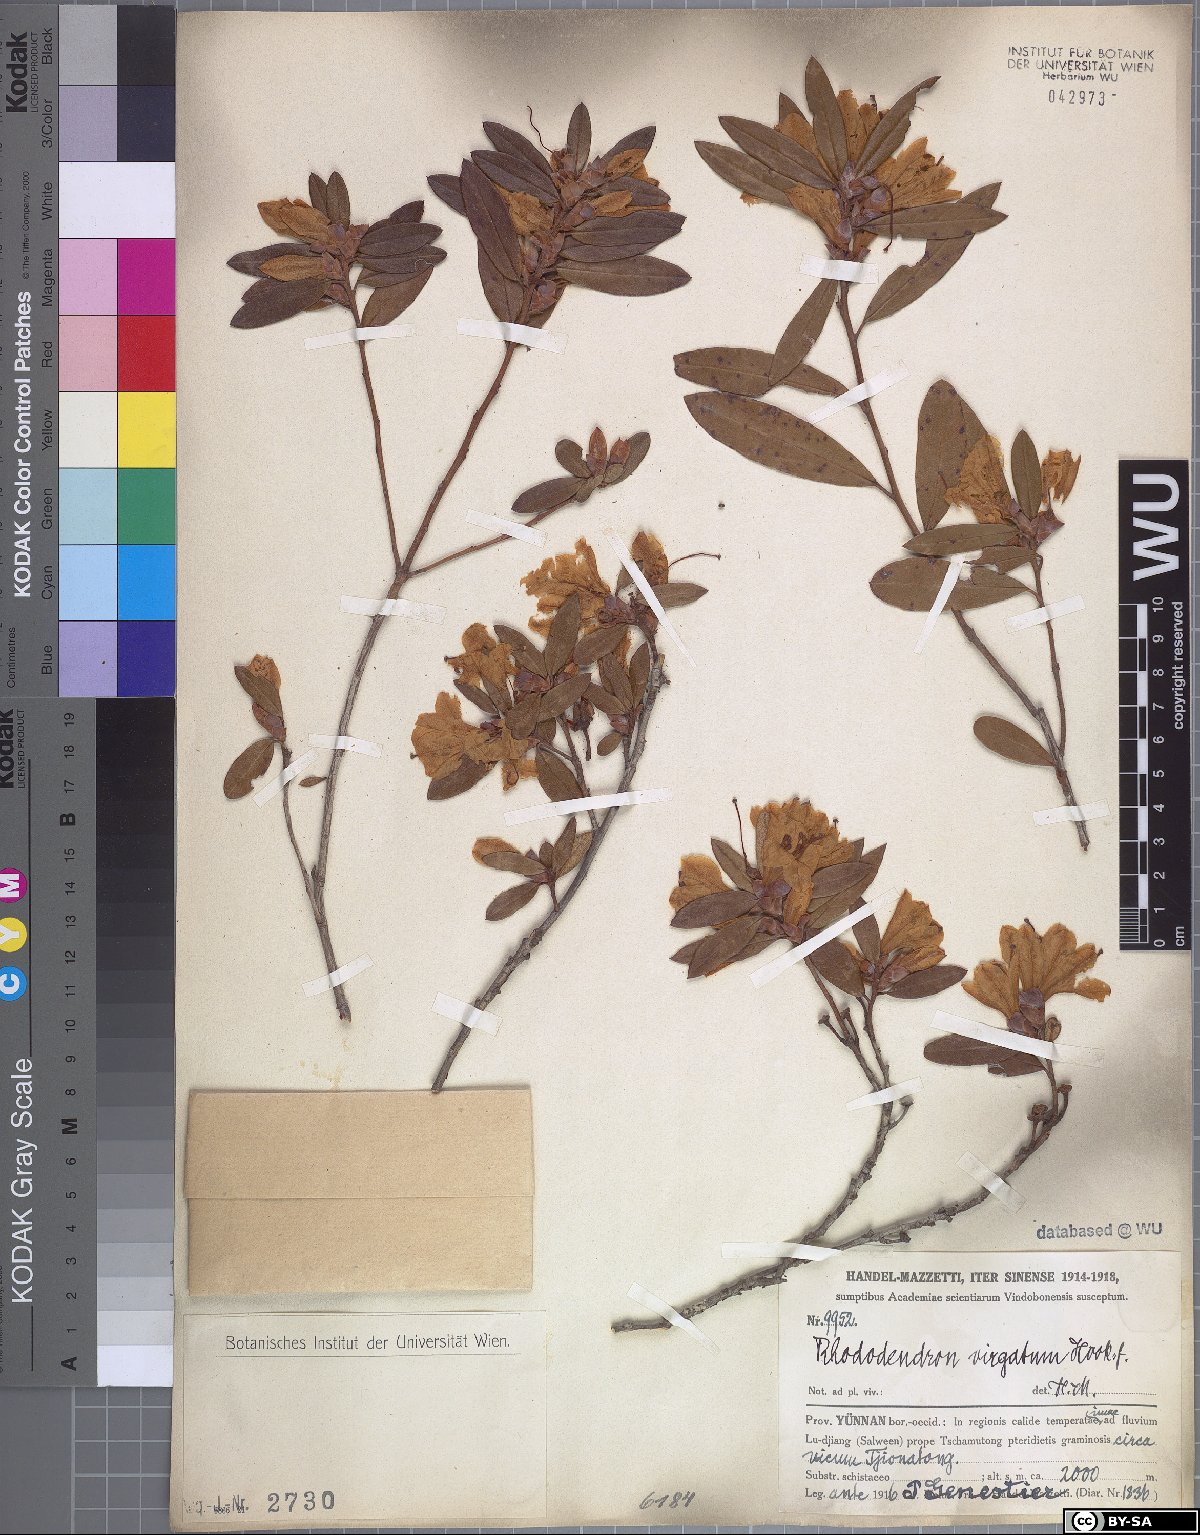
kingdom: Plantae
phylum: Tracheophyta
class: Magnoliopsida
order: Ericales
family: Ericaceae
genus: Rhododendron
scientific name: Rhododendron virgatum
